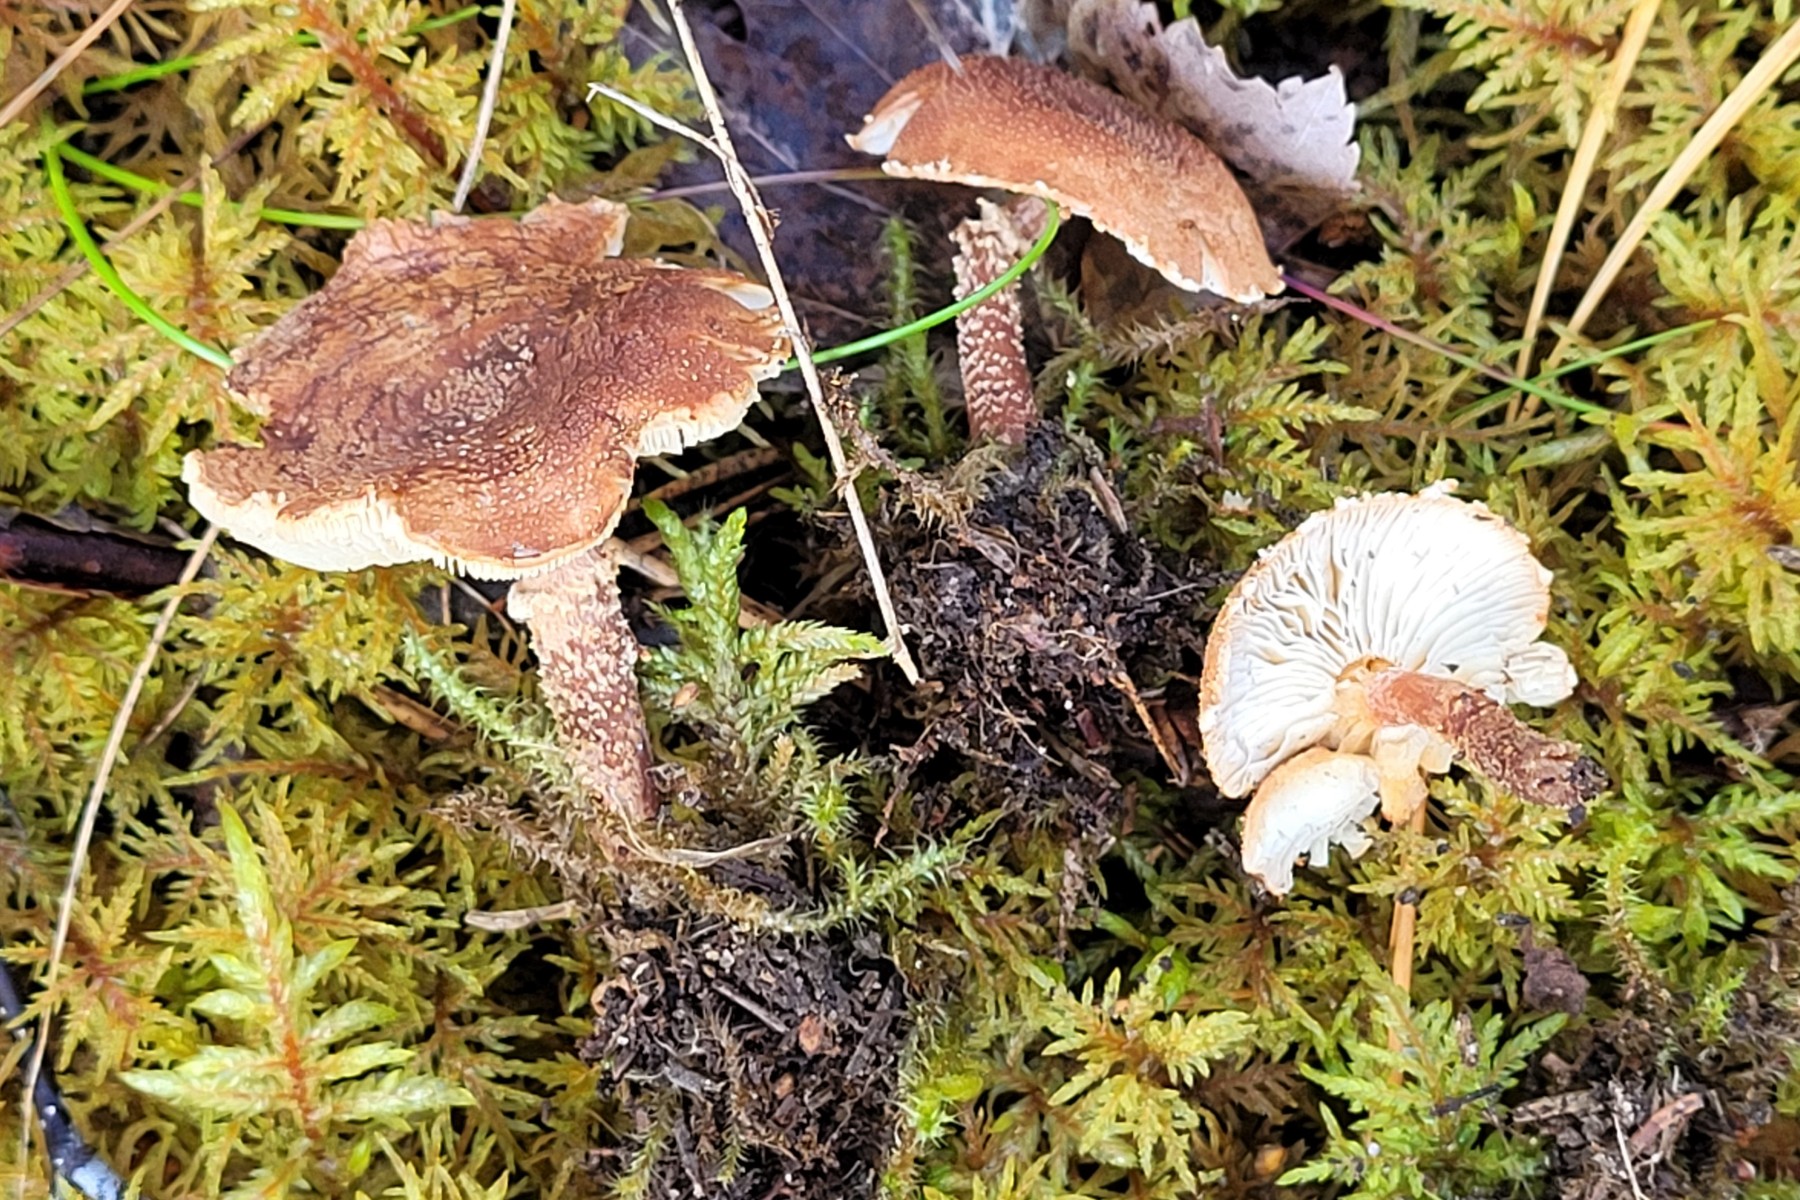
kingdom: Fungi
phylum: Basidiomycota
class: Agaricomycetes
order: Agaricales
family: Agaricaceae
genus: Cystodermella
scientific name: Cystodermella granulosa
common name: kliddet grynhat
